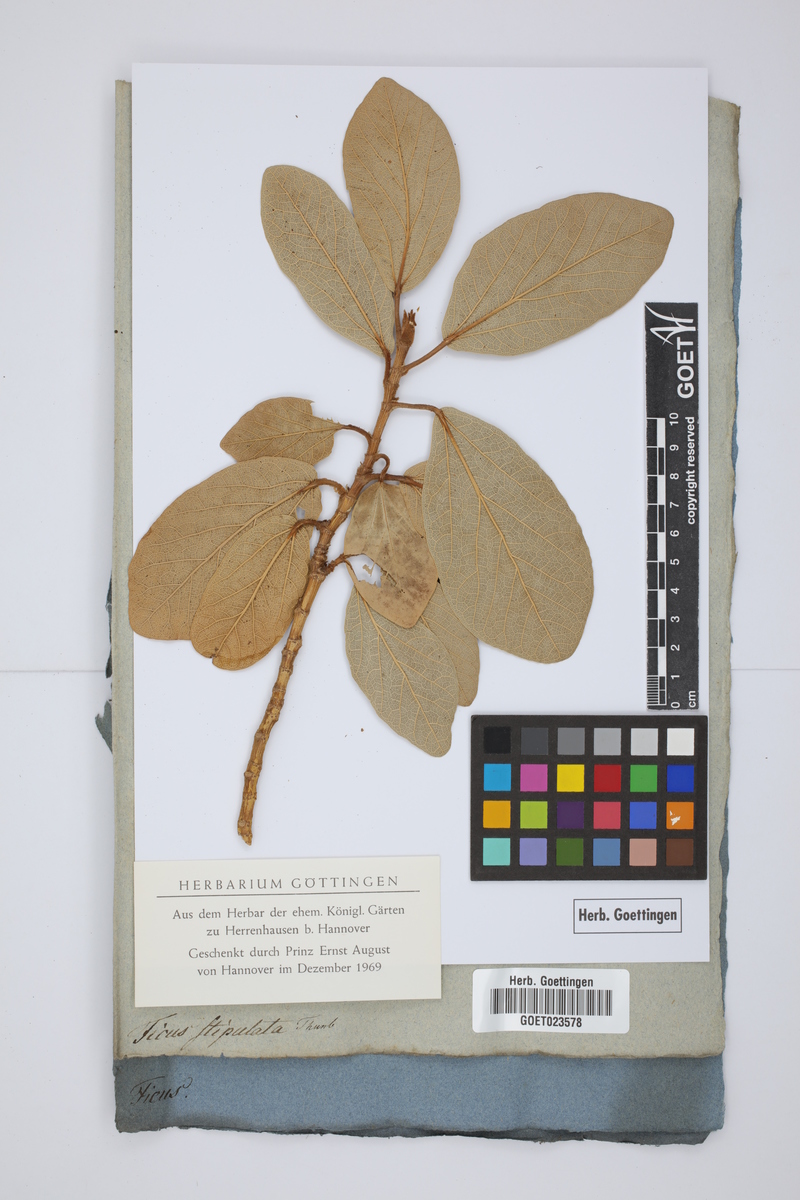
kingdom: Plantae
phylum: Tracheophyta
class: Magnoliopsida
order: Rosales
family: Moraceae
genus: Ficus
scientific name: Ficus pumila
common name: Climbingfig
